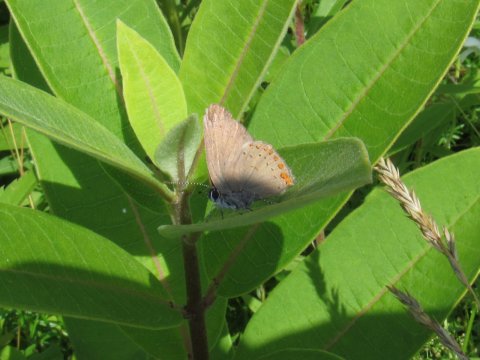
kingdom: Animalia
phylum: Arthropoda
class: Insecta
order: Lepidoptera
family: Lycaenidae
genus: Harkenclenus
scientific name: Harkenclenus titus
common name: Coral Hairstreak
